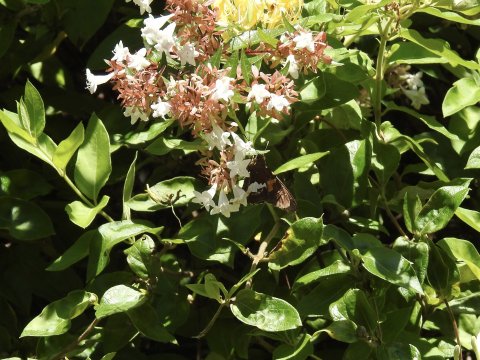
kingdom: Animalia
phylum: Arthropoda
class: Insecta
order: Lepidoptera
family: Hesperiidae
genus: Epargyreus
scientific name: Epargyreus clarus
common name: Silver-spotted Skipper
